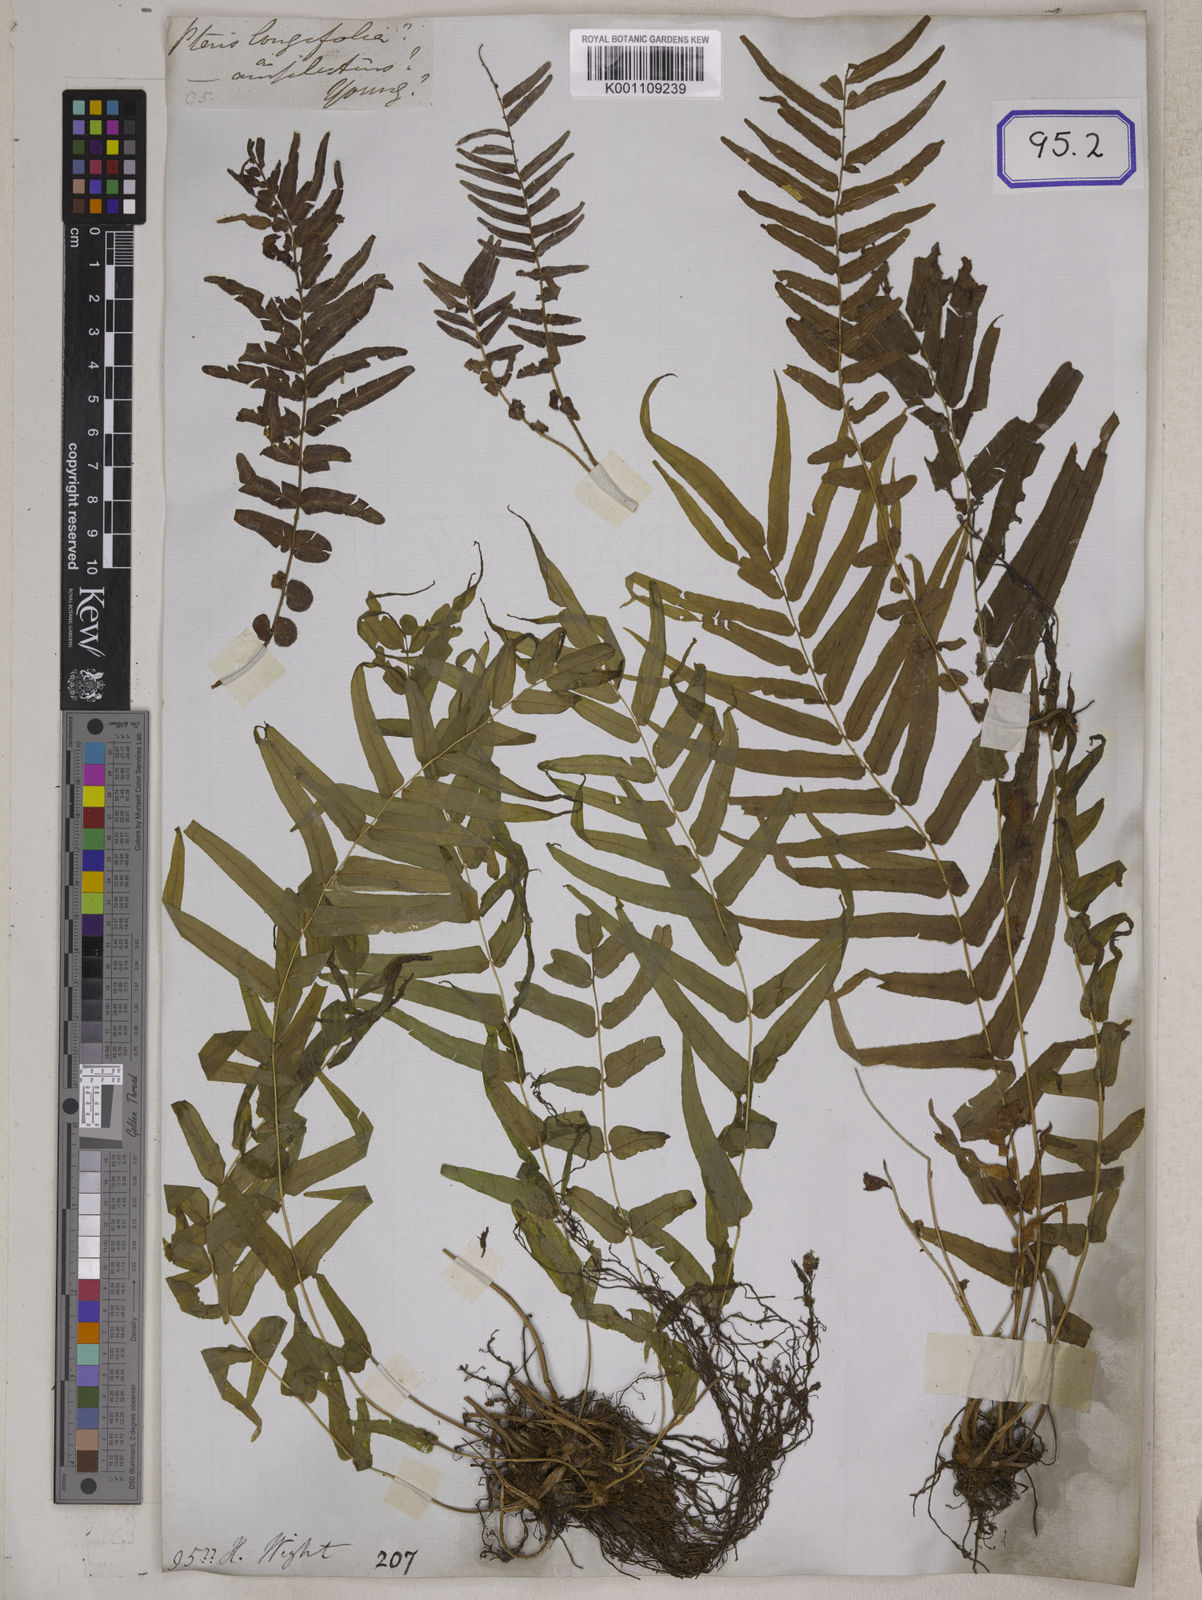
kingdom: Plantae
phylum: Tracheophyta
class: Polypodiopsida
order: Polypodiales
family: Pteridaceae
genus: Pteris
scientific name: Pteris cretica
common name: Ribbon fern
